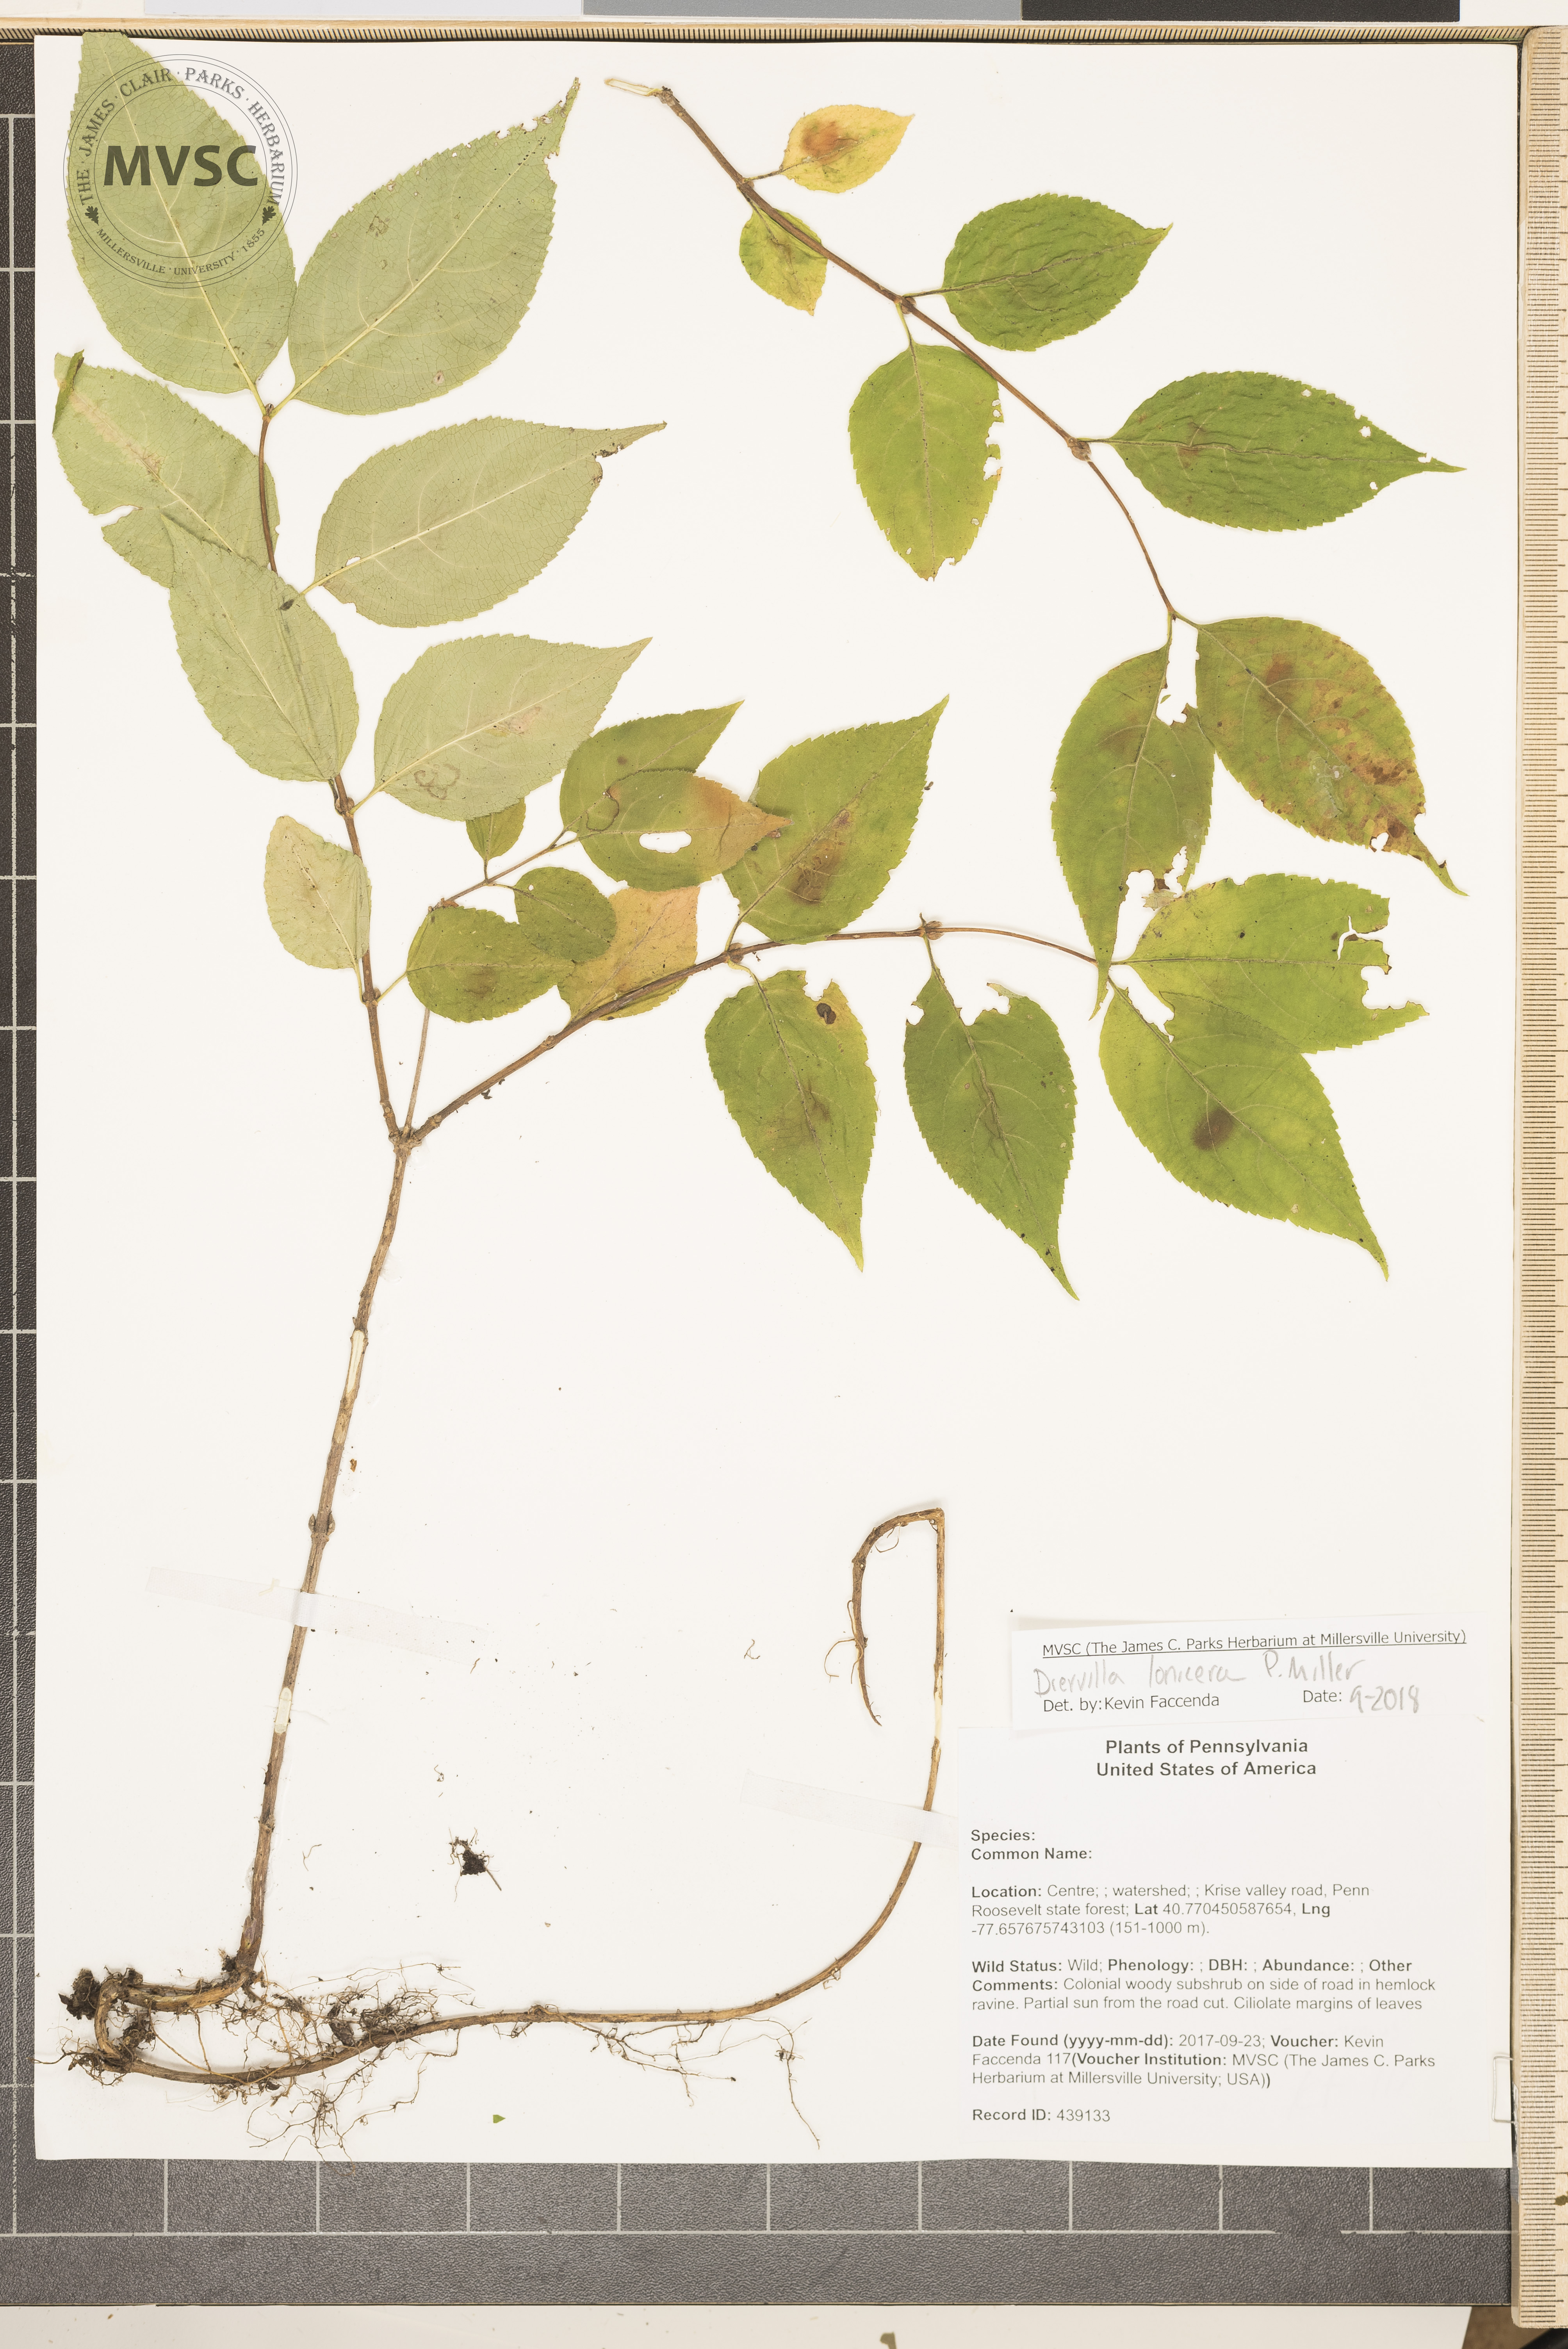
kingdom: Plantae
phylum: Tracheophyta
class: Magnoliopsida
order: Dipsacales
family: Caprifoliaceae
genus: Diervilla
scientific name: Diervilla lonicera
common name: Bush-honeysuckle
